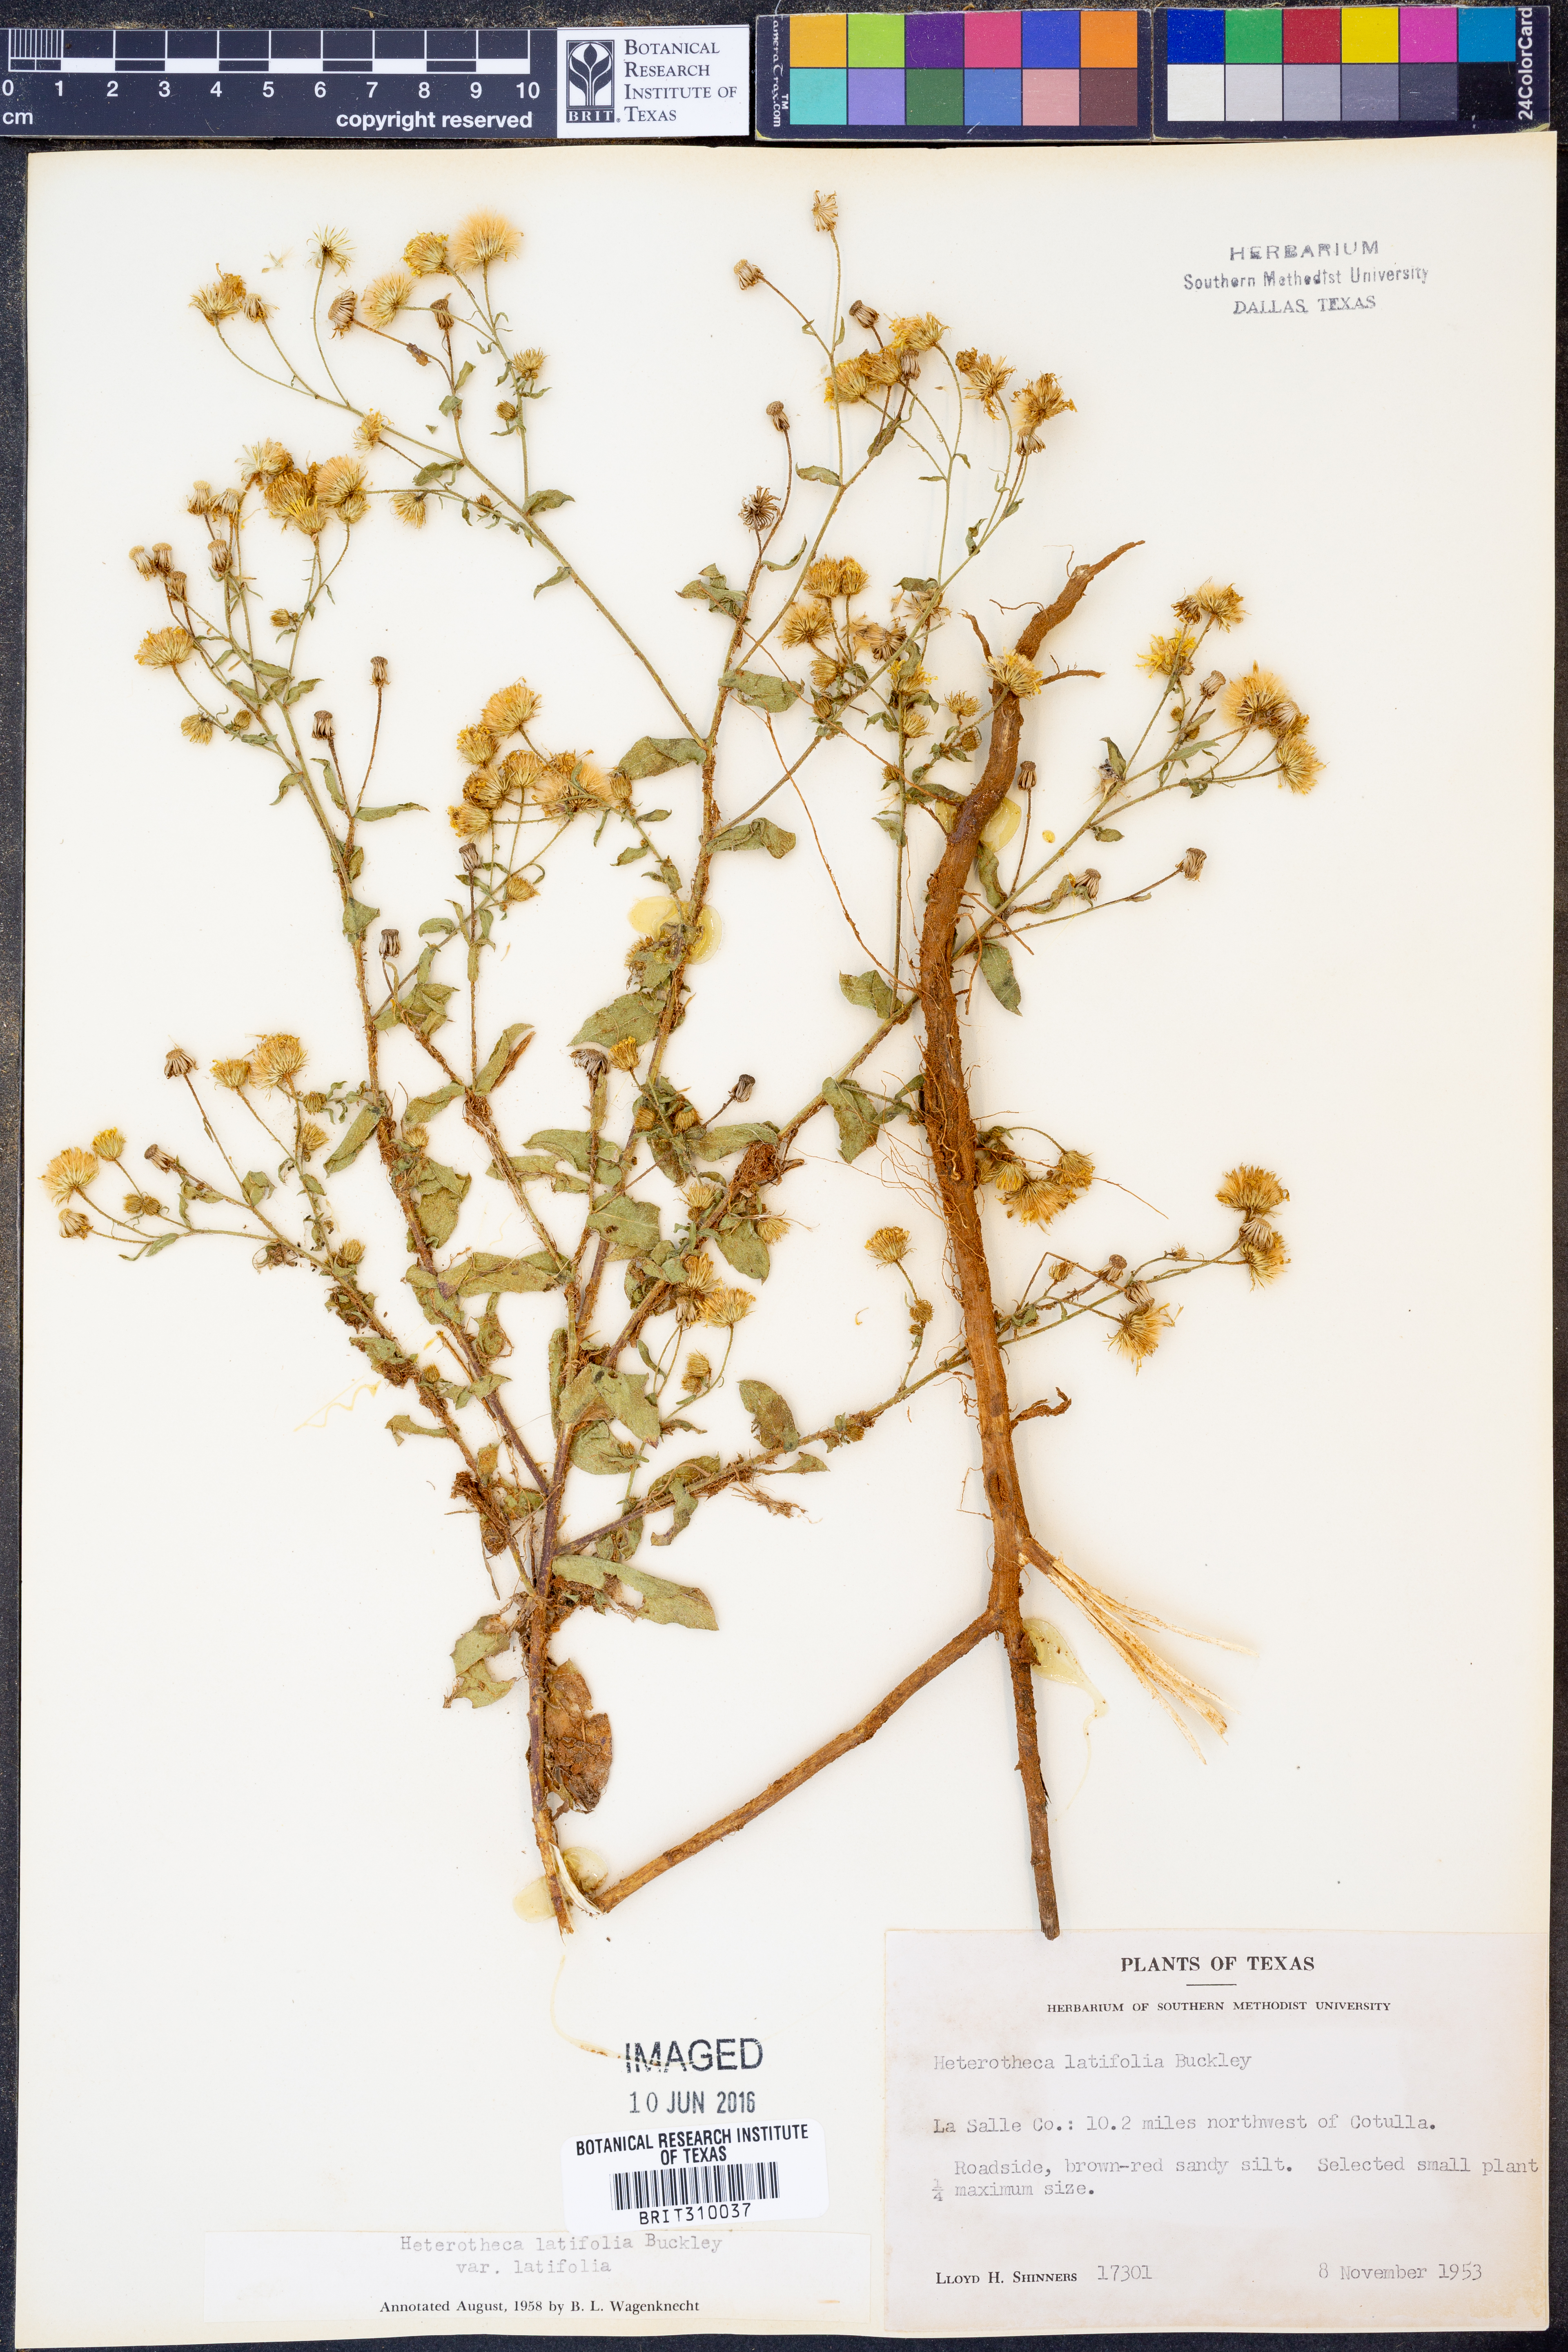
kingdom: Plantae
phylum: Tracheophyta
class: Magnoliopsida
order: Asterales
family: Asteraceae
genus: Heterotheca
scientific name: Heterotheca subaxillaris
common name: Camphorweed
